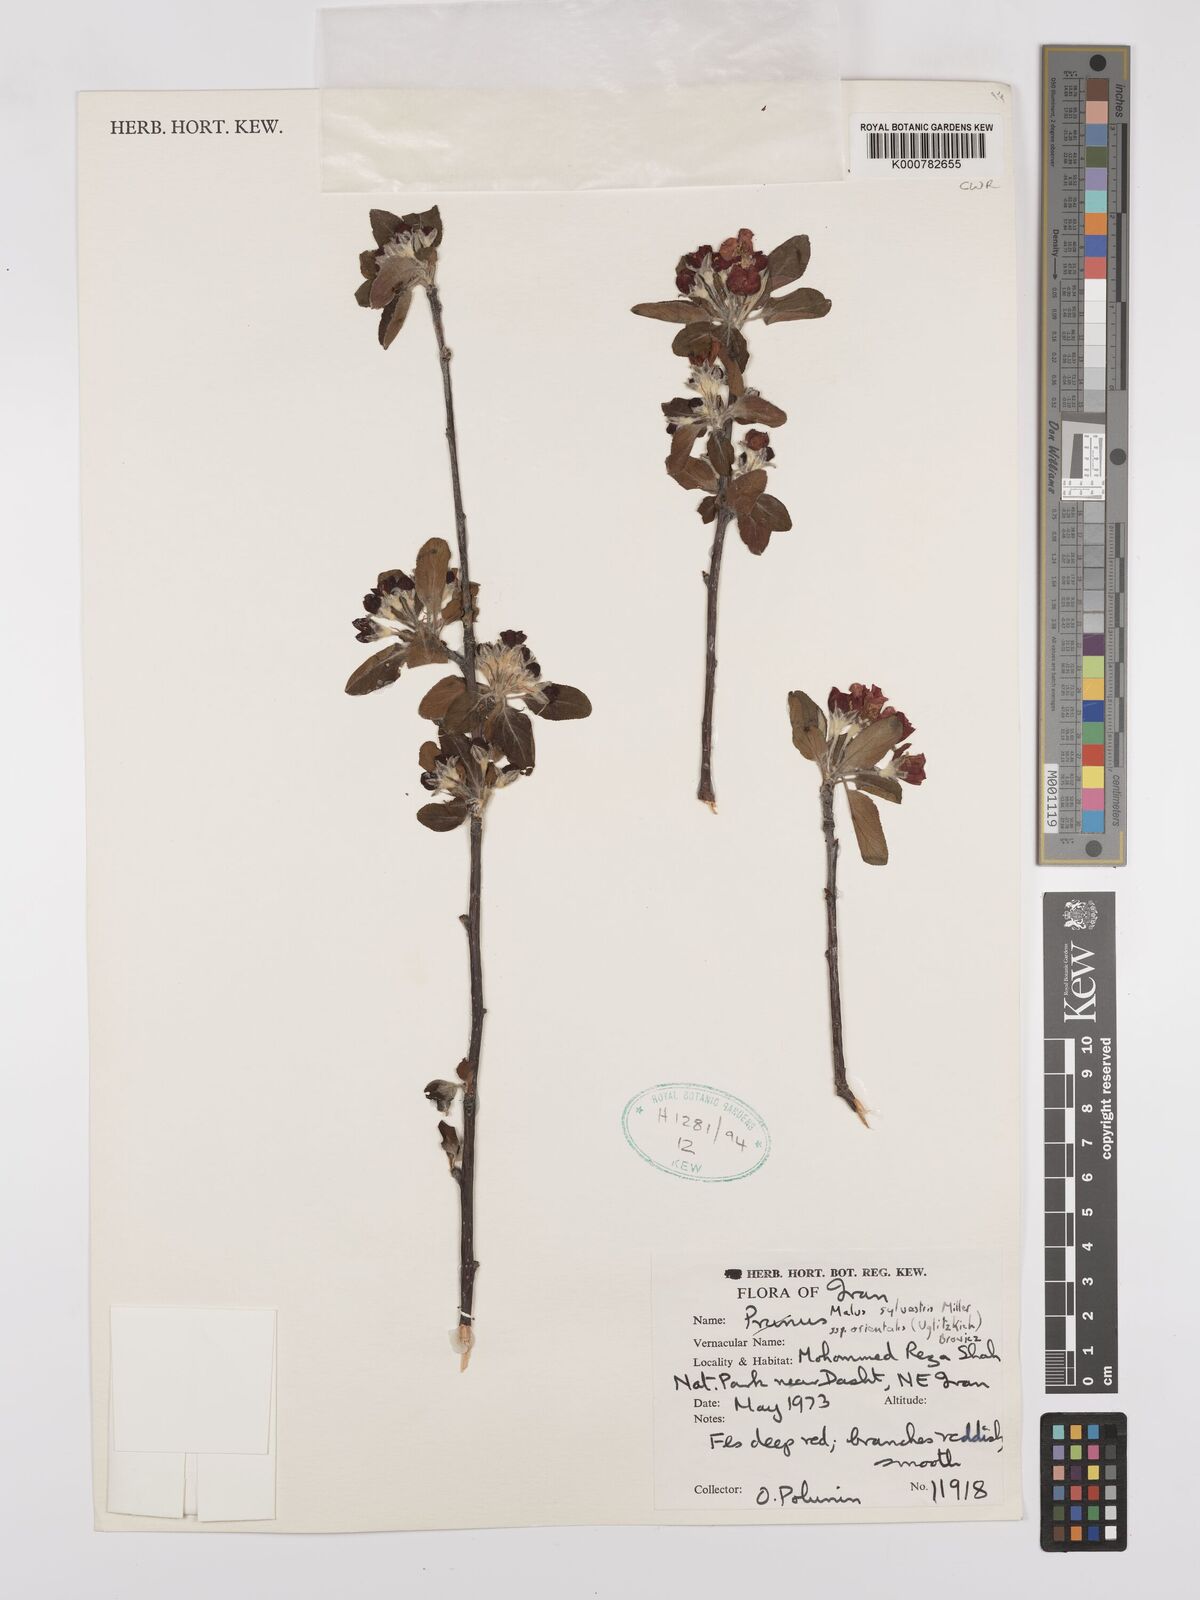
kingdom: Plantae
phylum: Tracheophyta
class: Magnoliopsida
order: Rosales
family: Rosaceae
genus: Malus
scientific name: Malus sylvestris
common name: Crab apple
